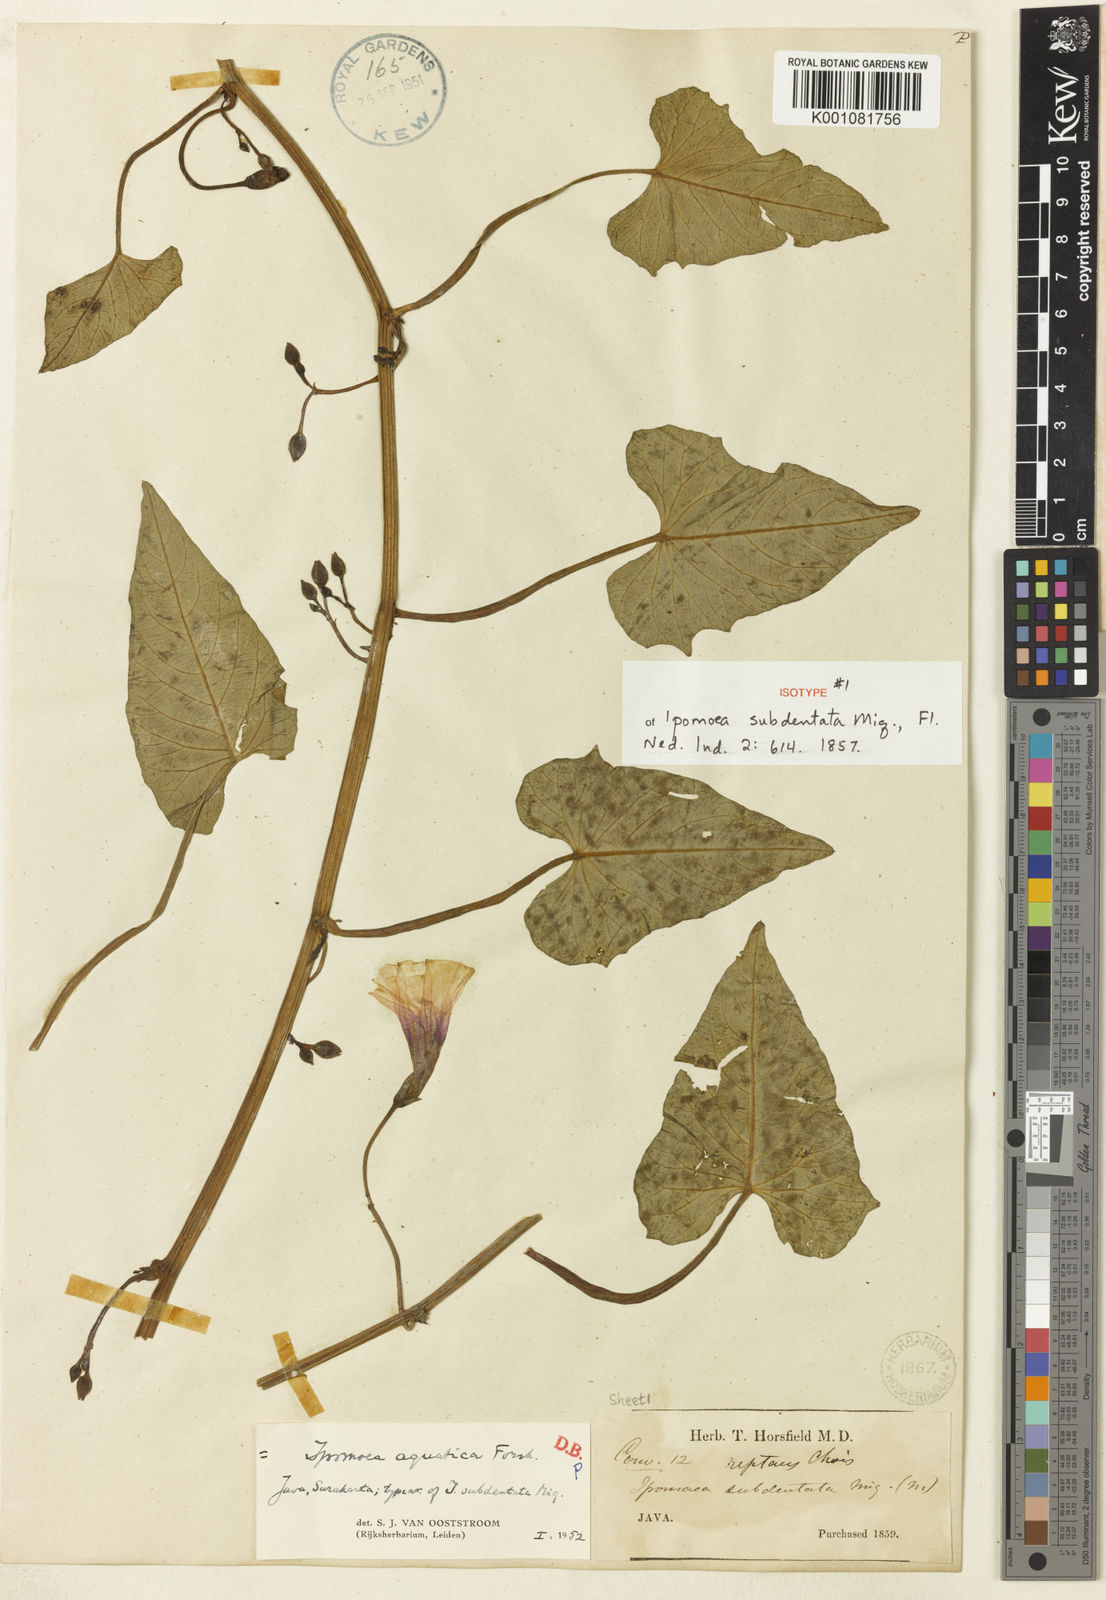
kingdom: Plantae
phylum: Tracheophyta
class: Magnoliopsida
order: Solanales
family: Convolvulaceae
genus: Ipomoea
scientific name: Ipomoea aquatica
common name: Swamp morning-glory
